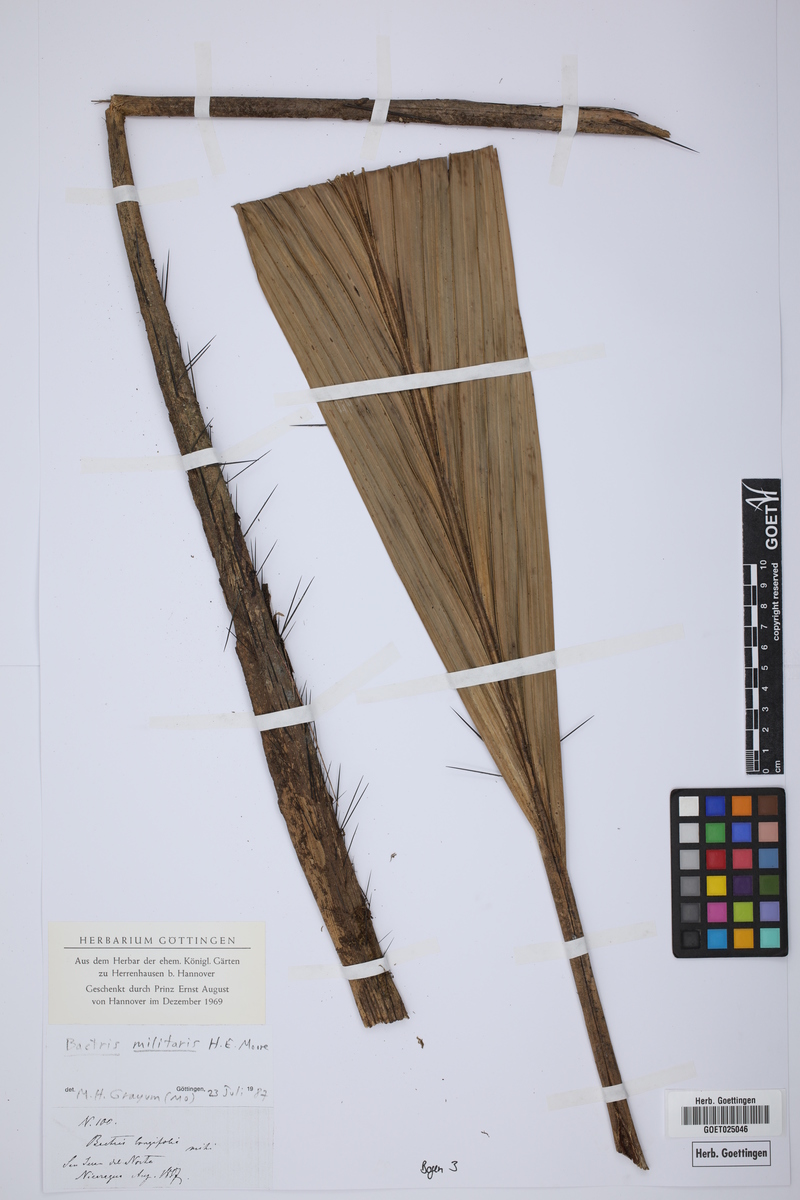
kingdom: Plantae
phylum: Tracheophyta
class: Liliopsida
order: Arecales
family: Arecaceae
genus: Bactris
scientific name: Bactris militaris
